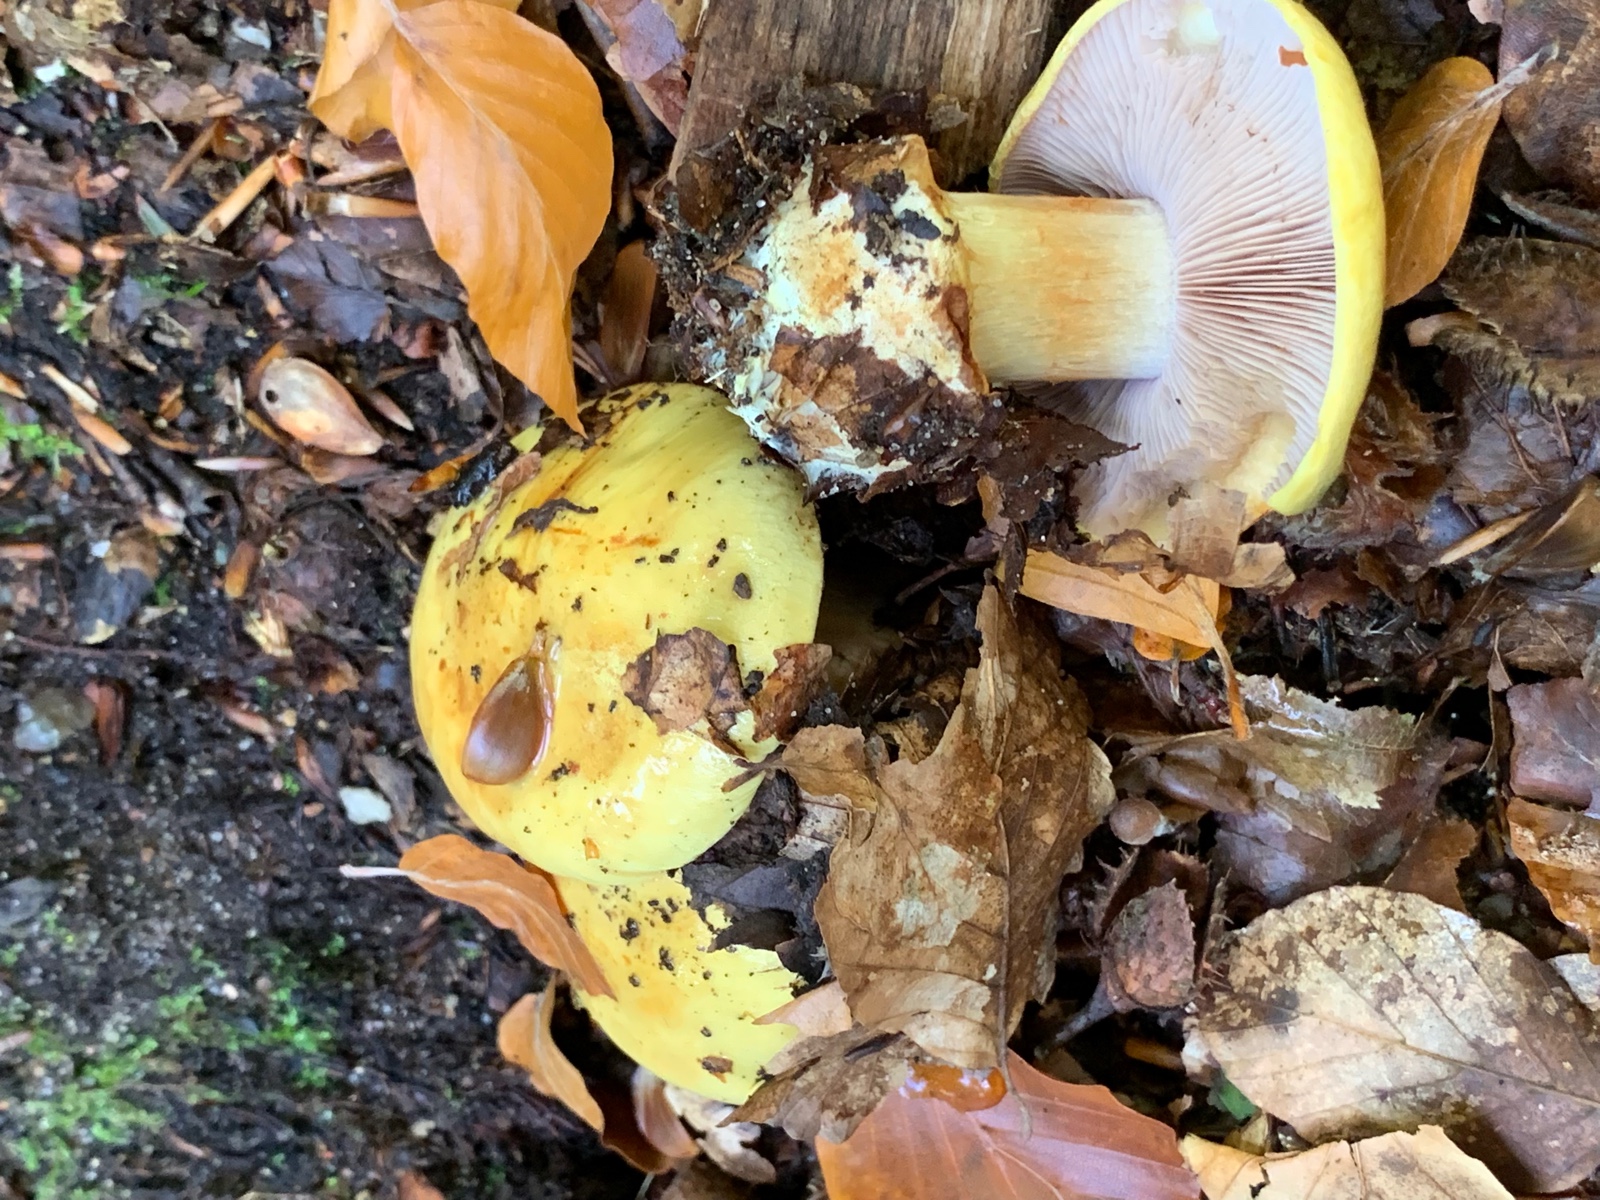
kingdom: Fungi
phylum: Basidiomycota
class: Agaricomycetes
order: Agaricales
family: Cortinariaceae
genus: Calonarius
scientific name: Calonarius callochrous
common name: lillabladet slørhat
